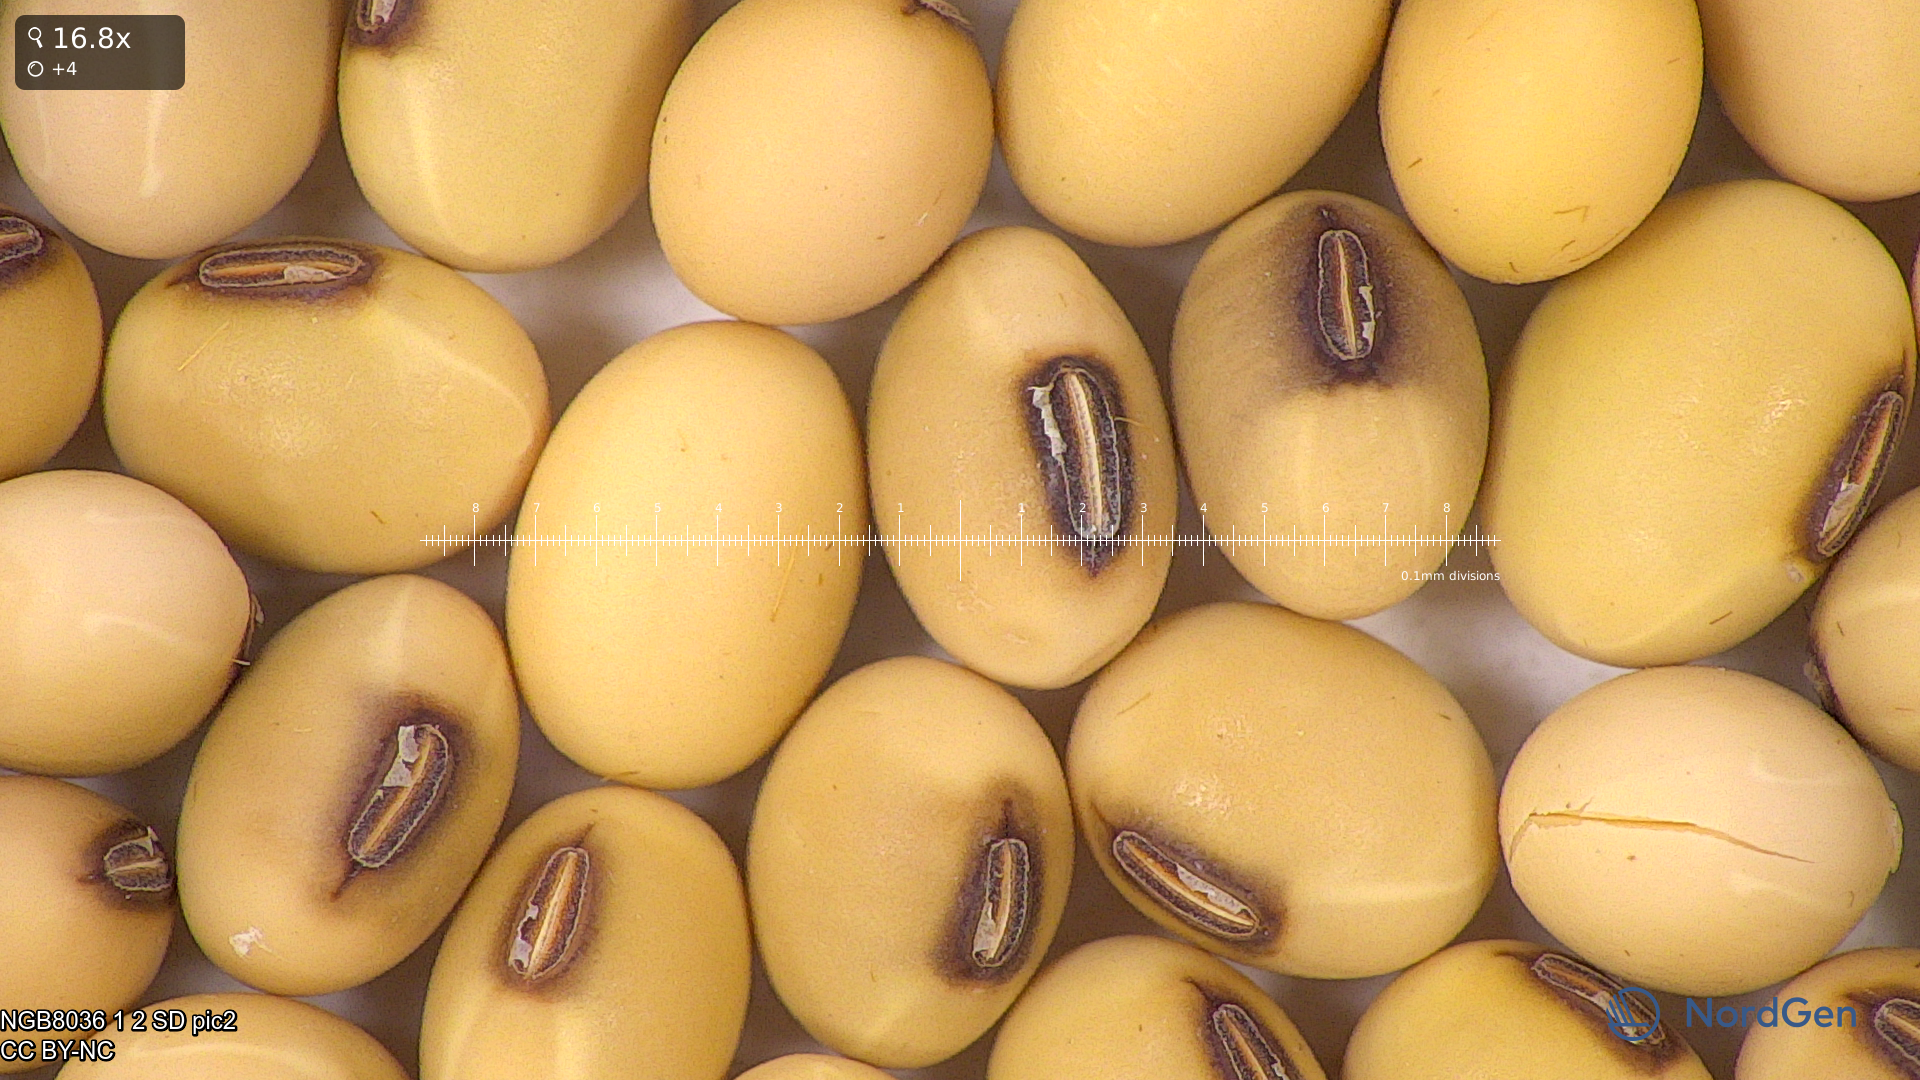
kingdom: Plantae
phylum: Tracheophyta
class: Magnoliopsida
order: Fabales
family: Fabaceae
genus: Glycine
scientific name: Glycine max
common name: Soya-bean
